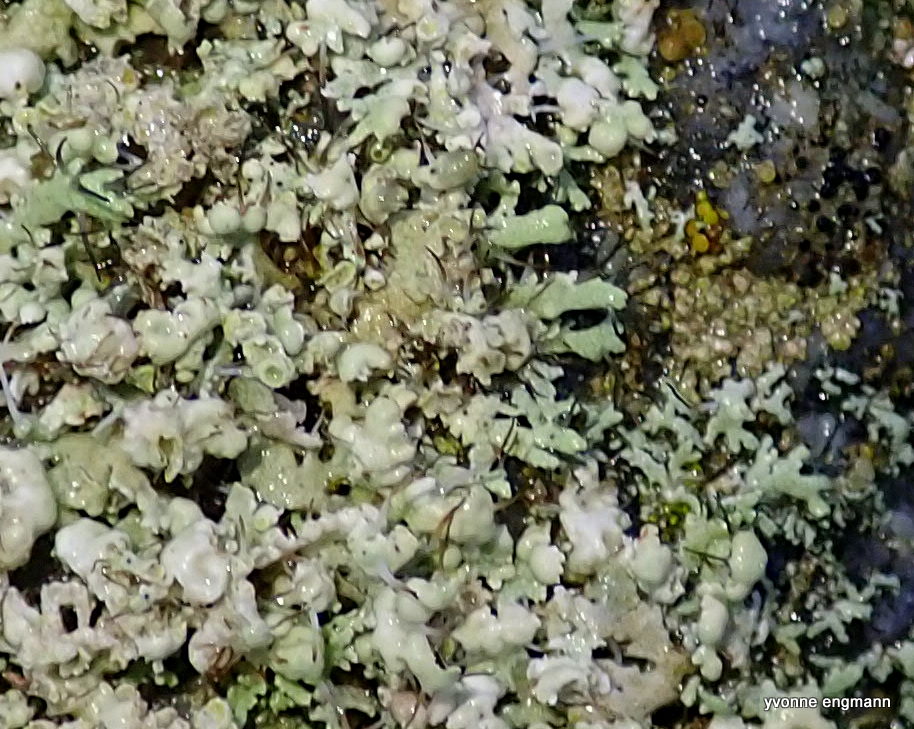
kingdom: Fungi
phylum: Ascomycota
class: Lecanoromycetes
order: Caliciales
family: Physciaceae
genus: Physcia
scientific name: Physcia tenella
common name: spæd rosetlav
